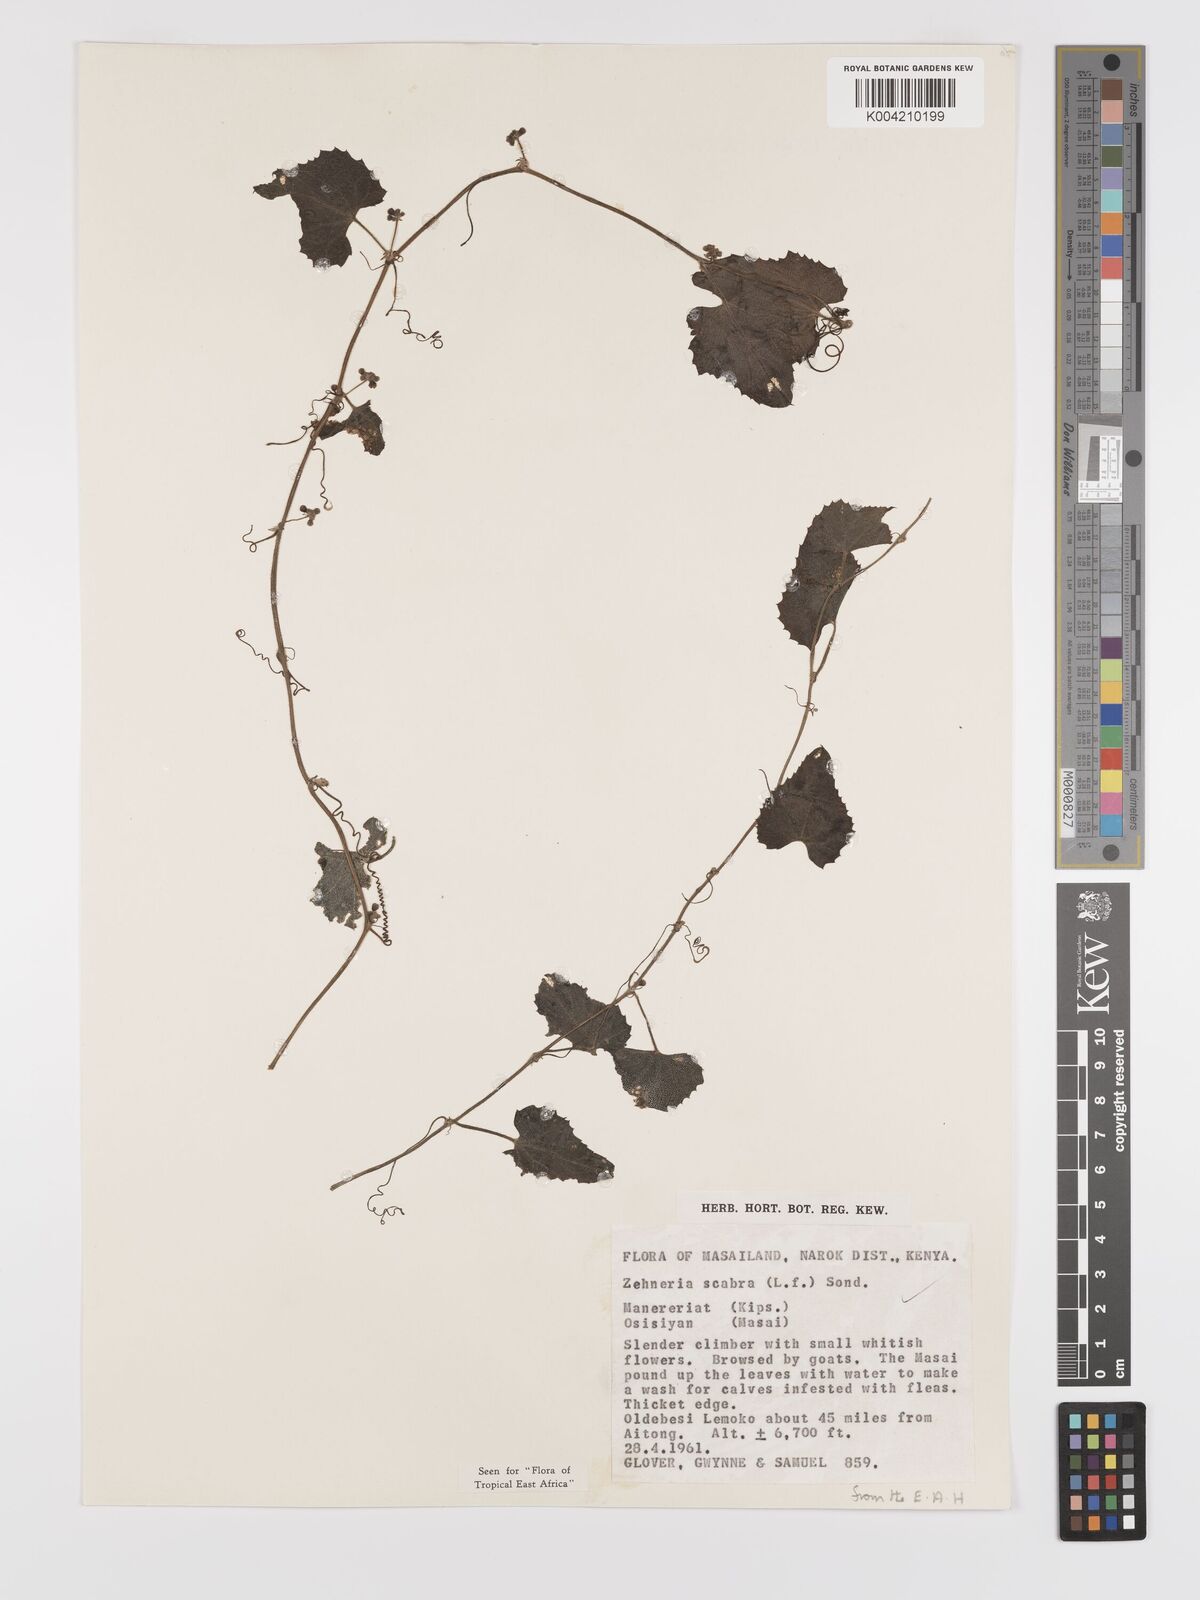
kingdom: Plantae
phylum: Tracheophyta
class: Magnoliopsida
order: Cucurbitales
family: Cucurbitaceae
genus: Zehneria
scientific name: Zehneria scabra
